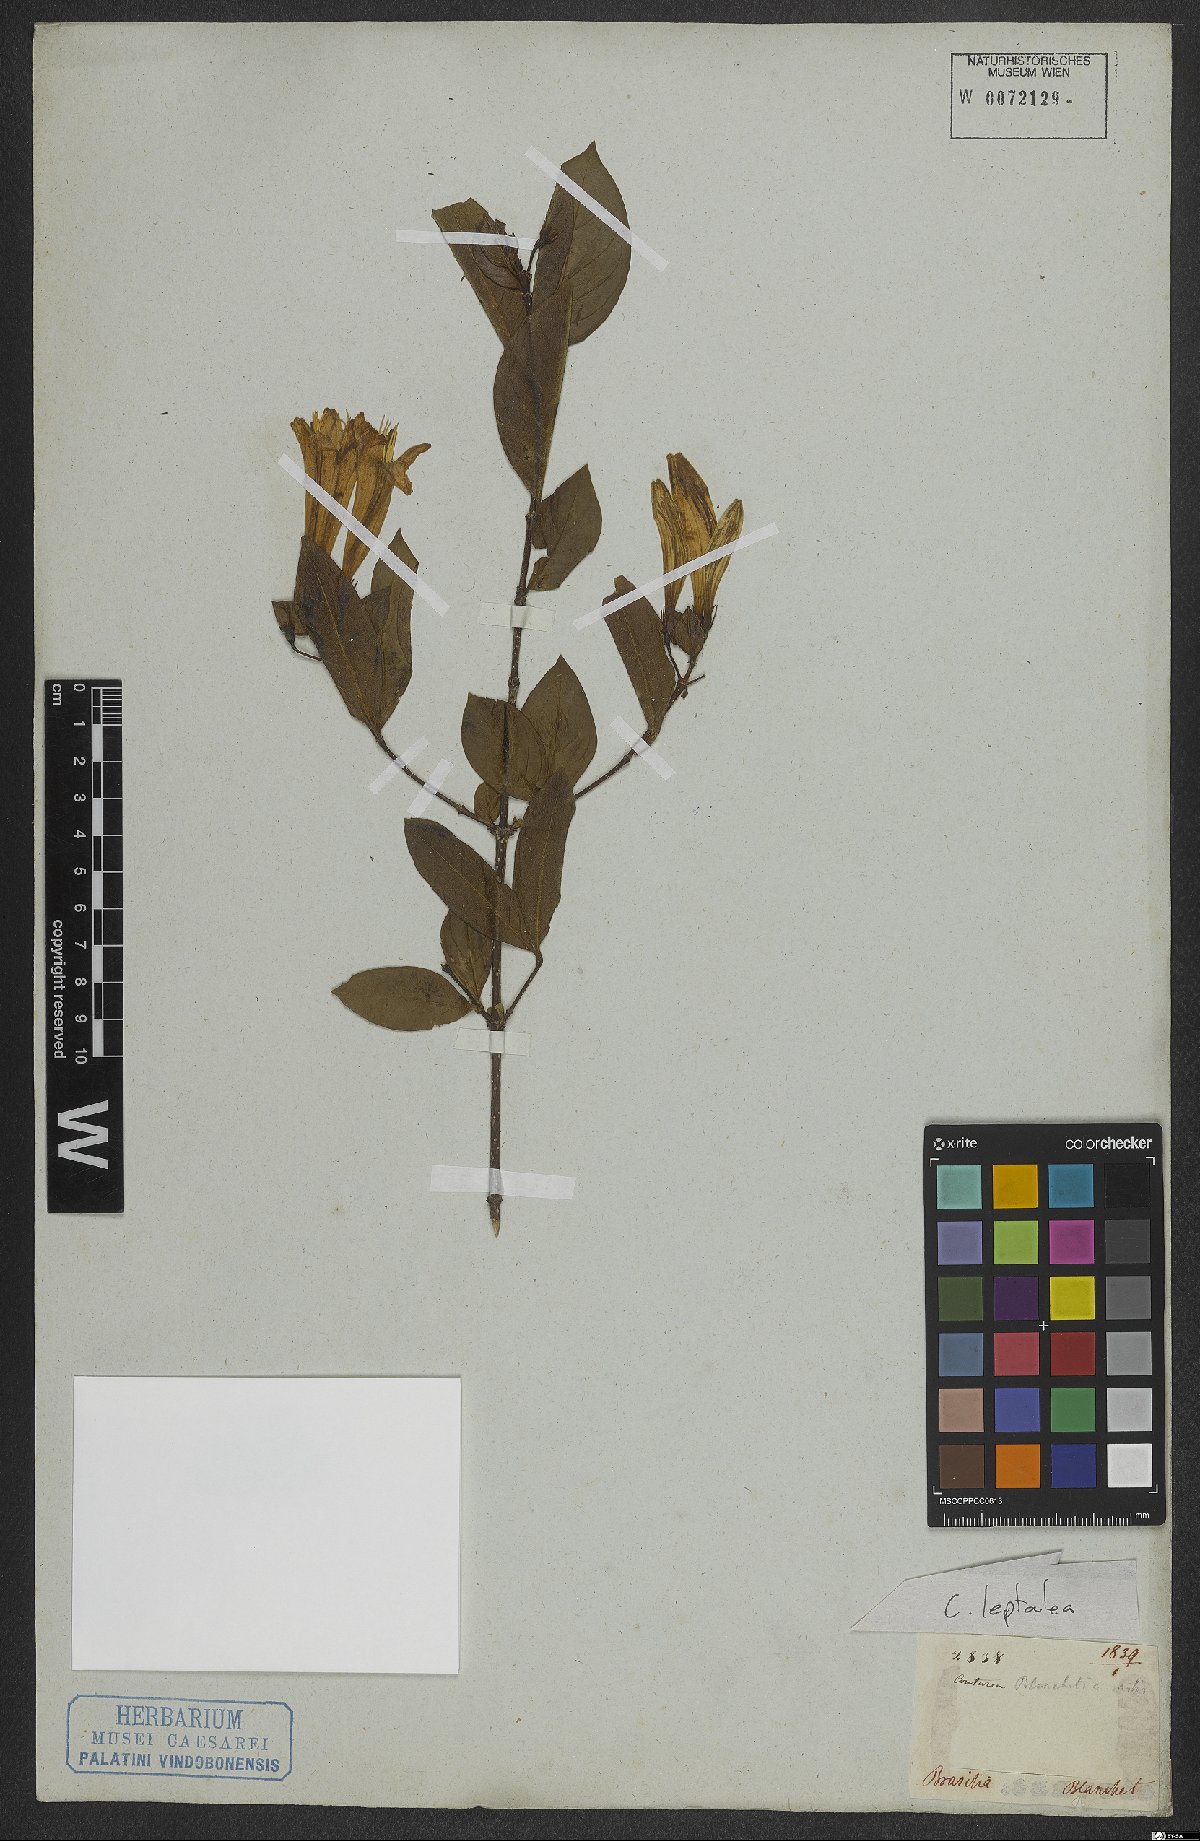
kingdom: Plantae
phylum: Tracheophyta
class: Magnoliopsida
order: Gentianales
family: Rubiaceae
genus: Coutarea
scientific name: Coutarea
